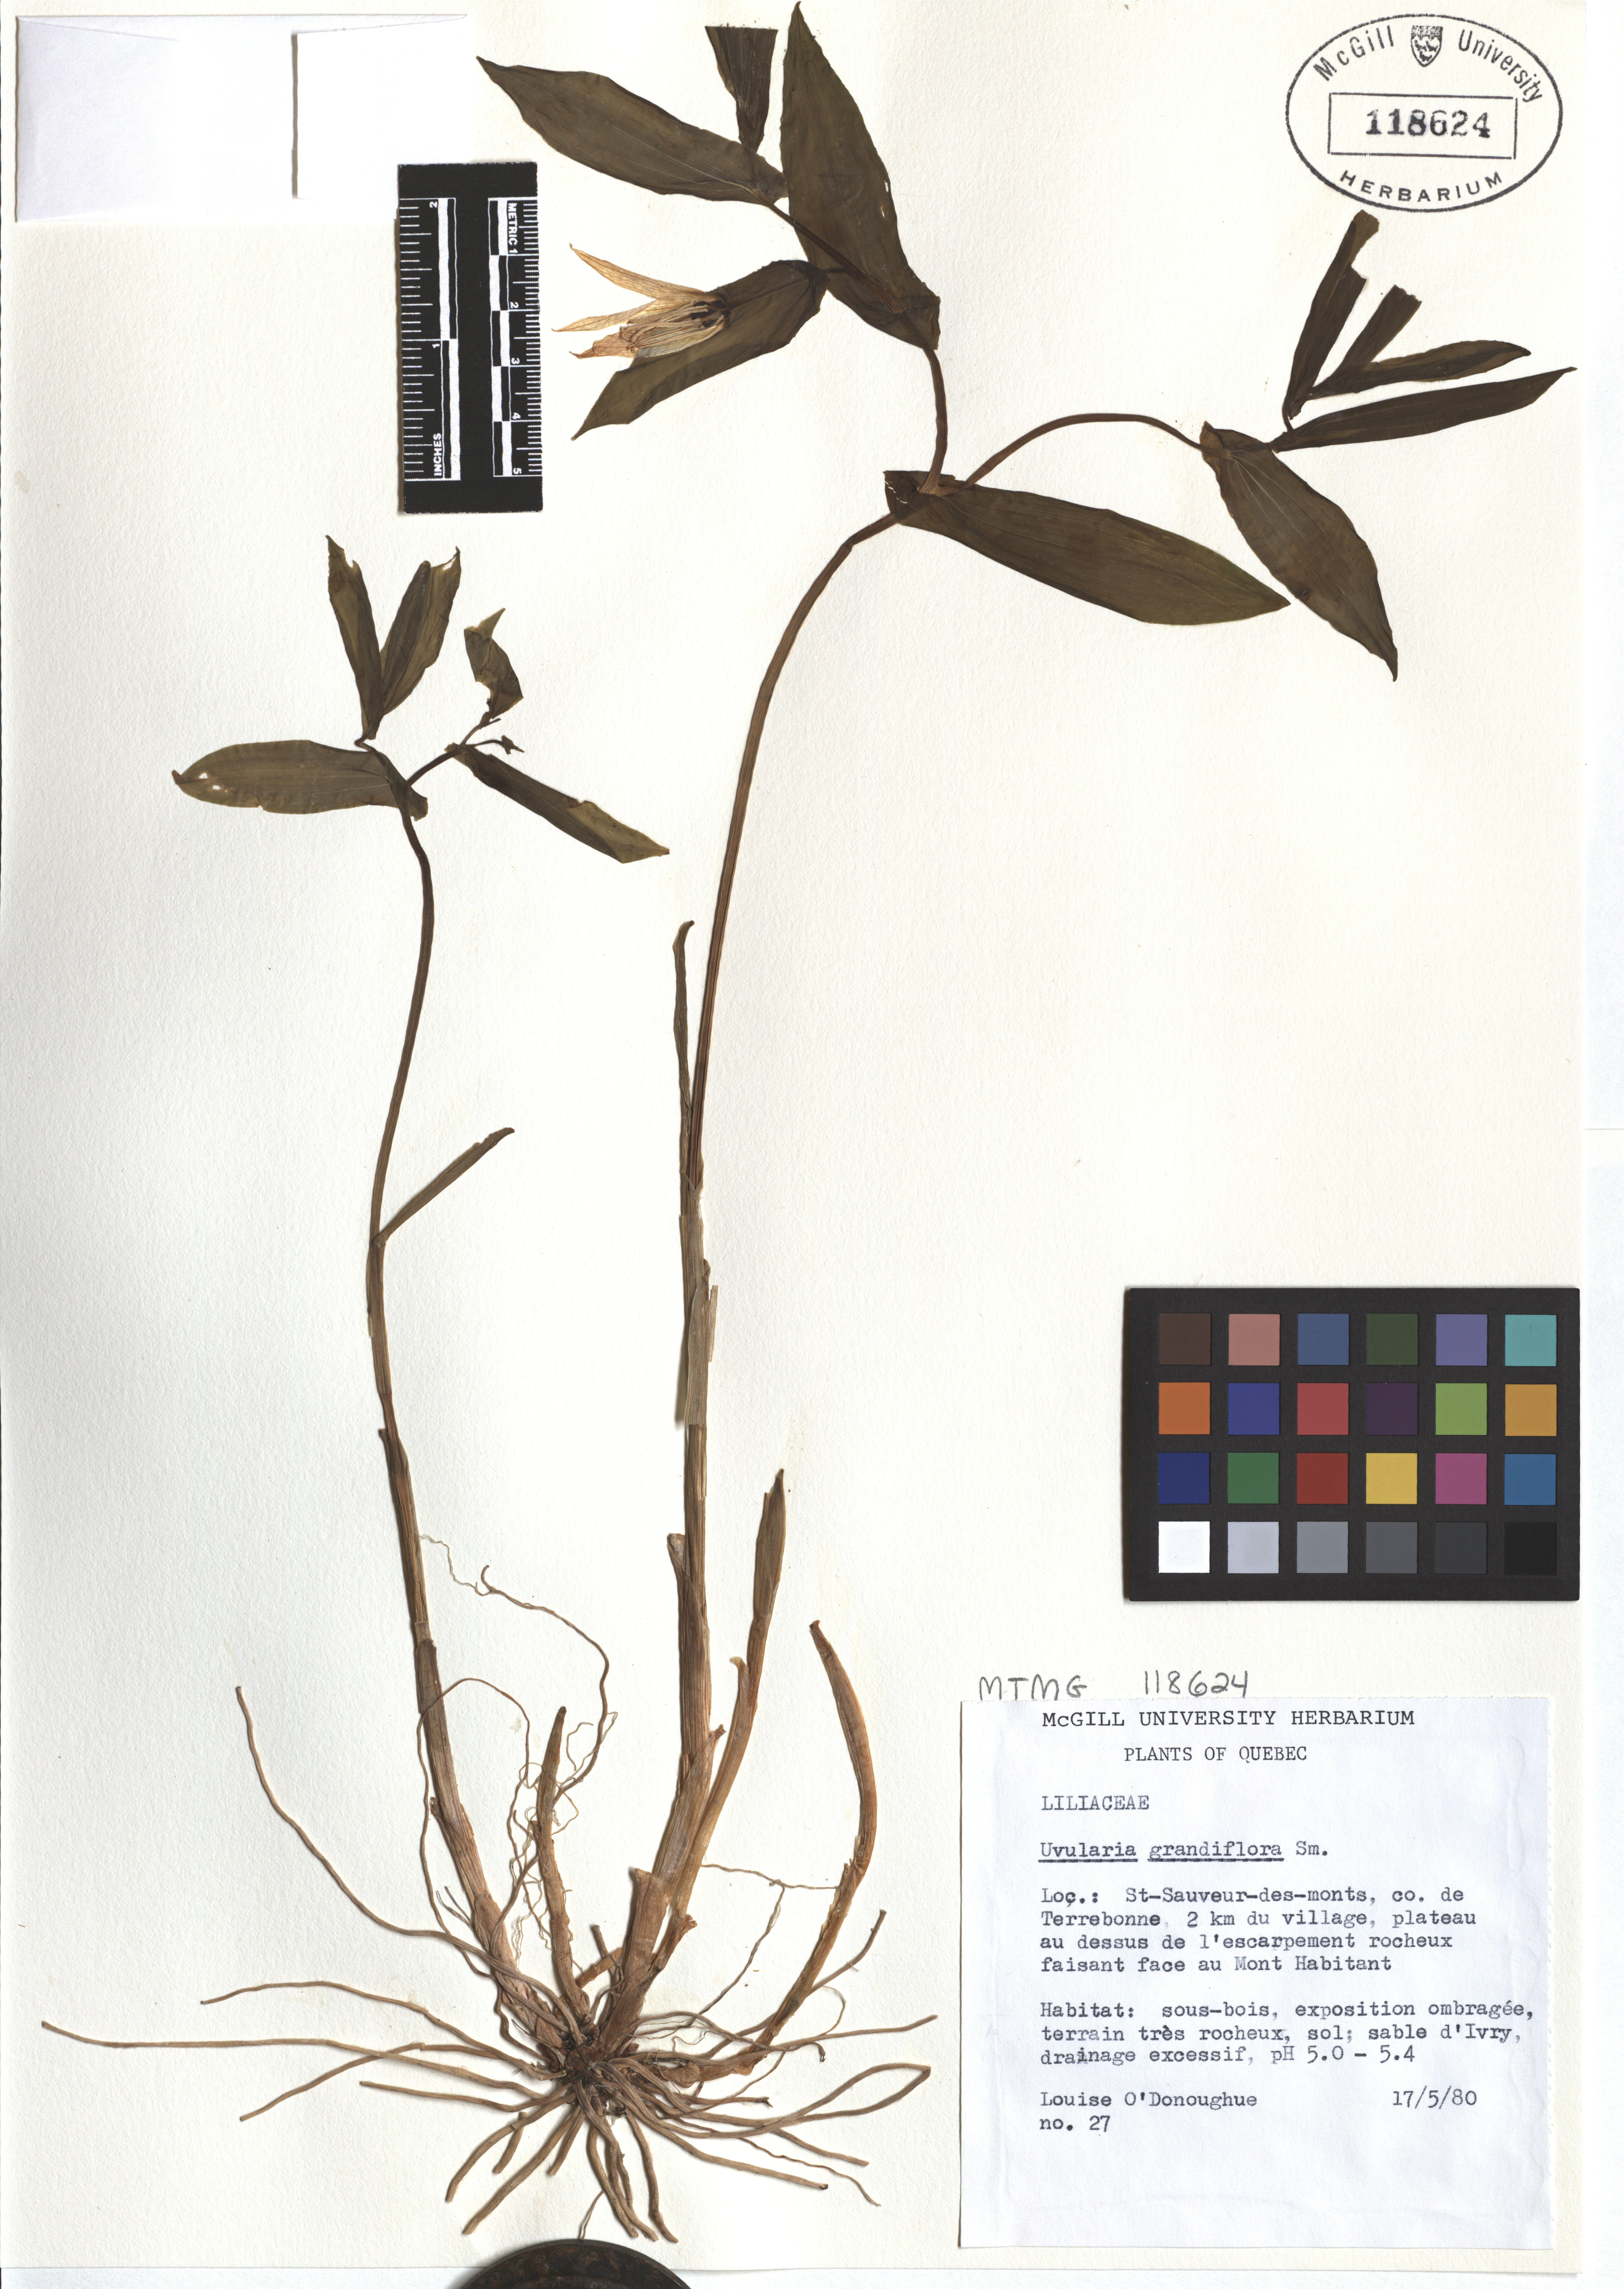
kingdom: Plantae
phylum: Tracheophyta
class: Liliopsida
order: Liliales
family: Colchicaceae
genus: Uvularia
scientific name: Uvularia grandiflora
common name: Bellwort
